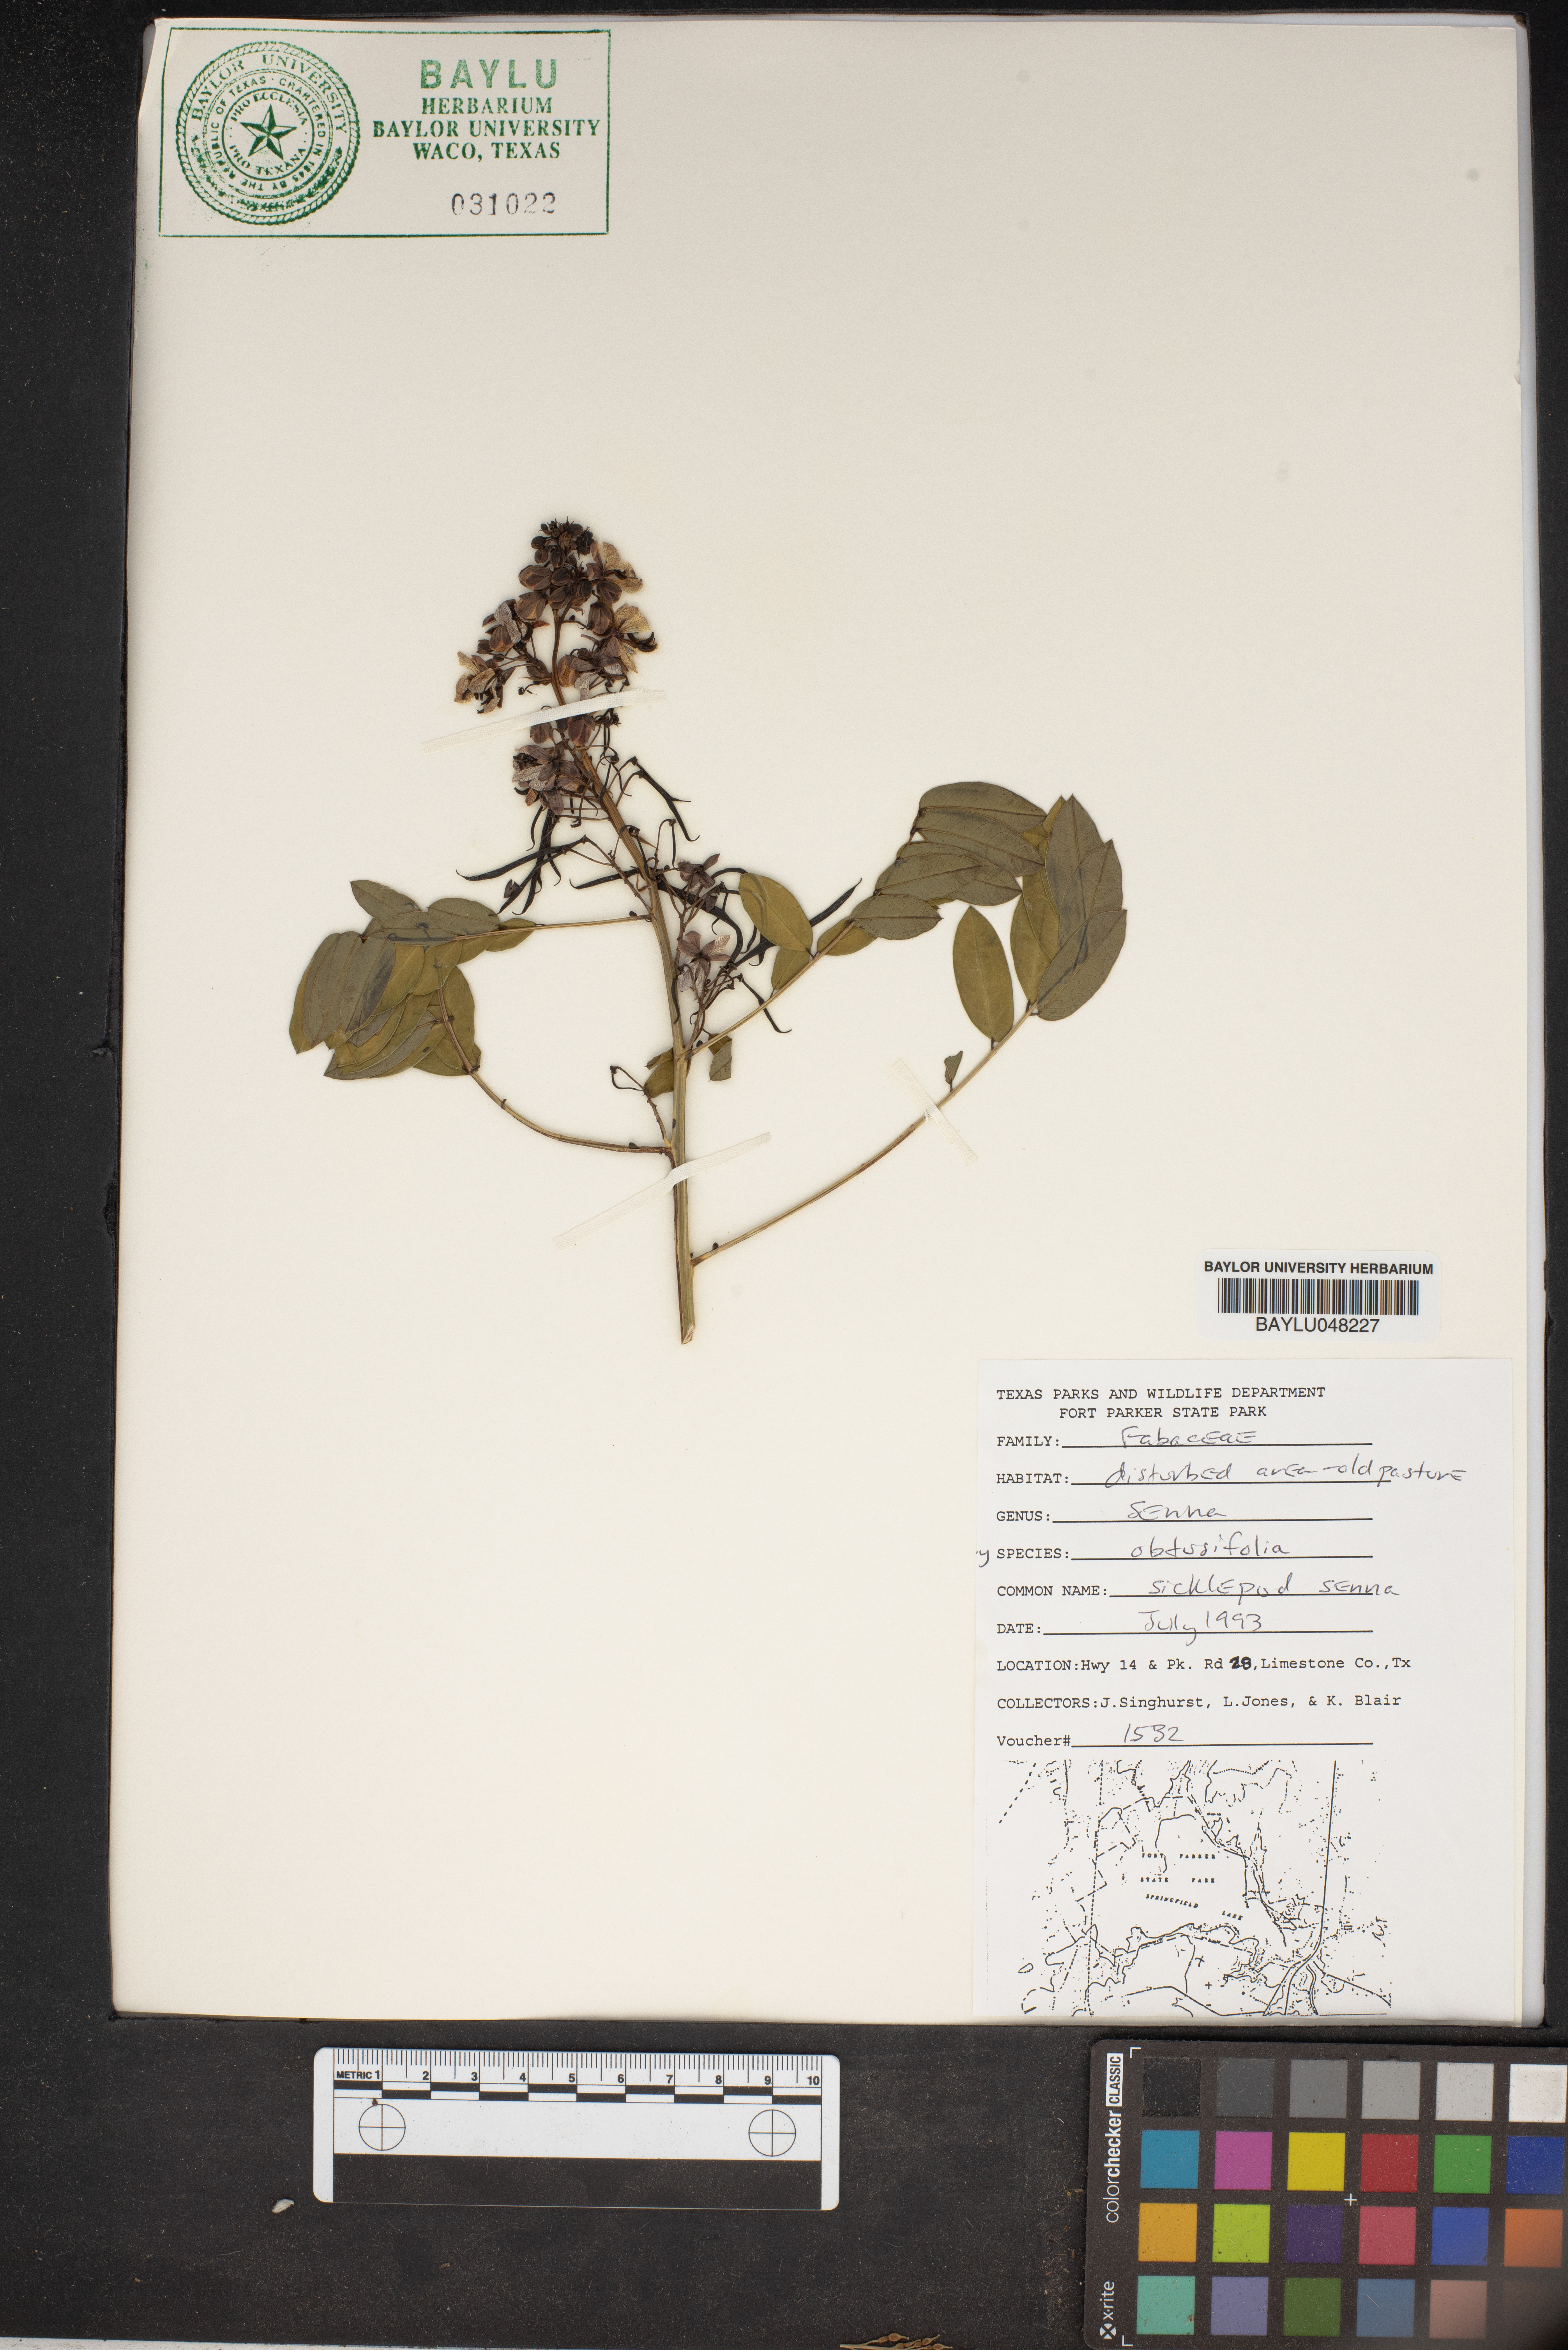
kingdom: Plantae
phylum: Tracheophyta
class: Magnoliopsida
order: Fabales
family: Fabaceae
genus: Senna
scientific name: Senna obtusifolia
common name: Java-bean
